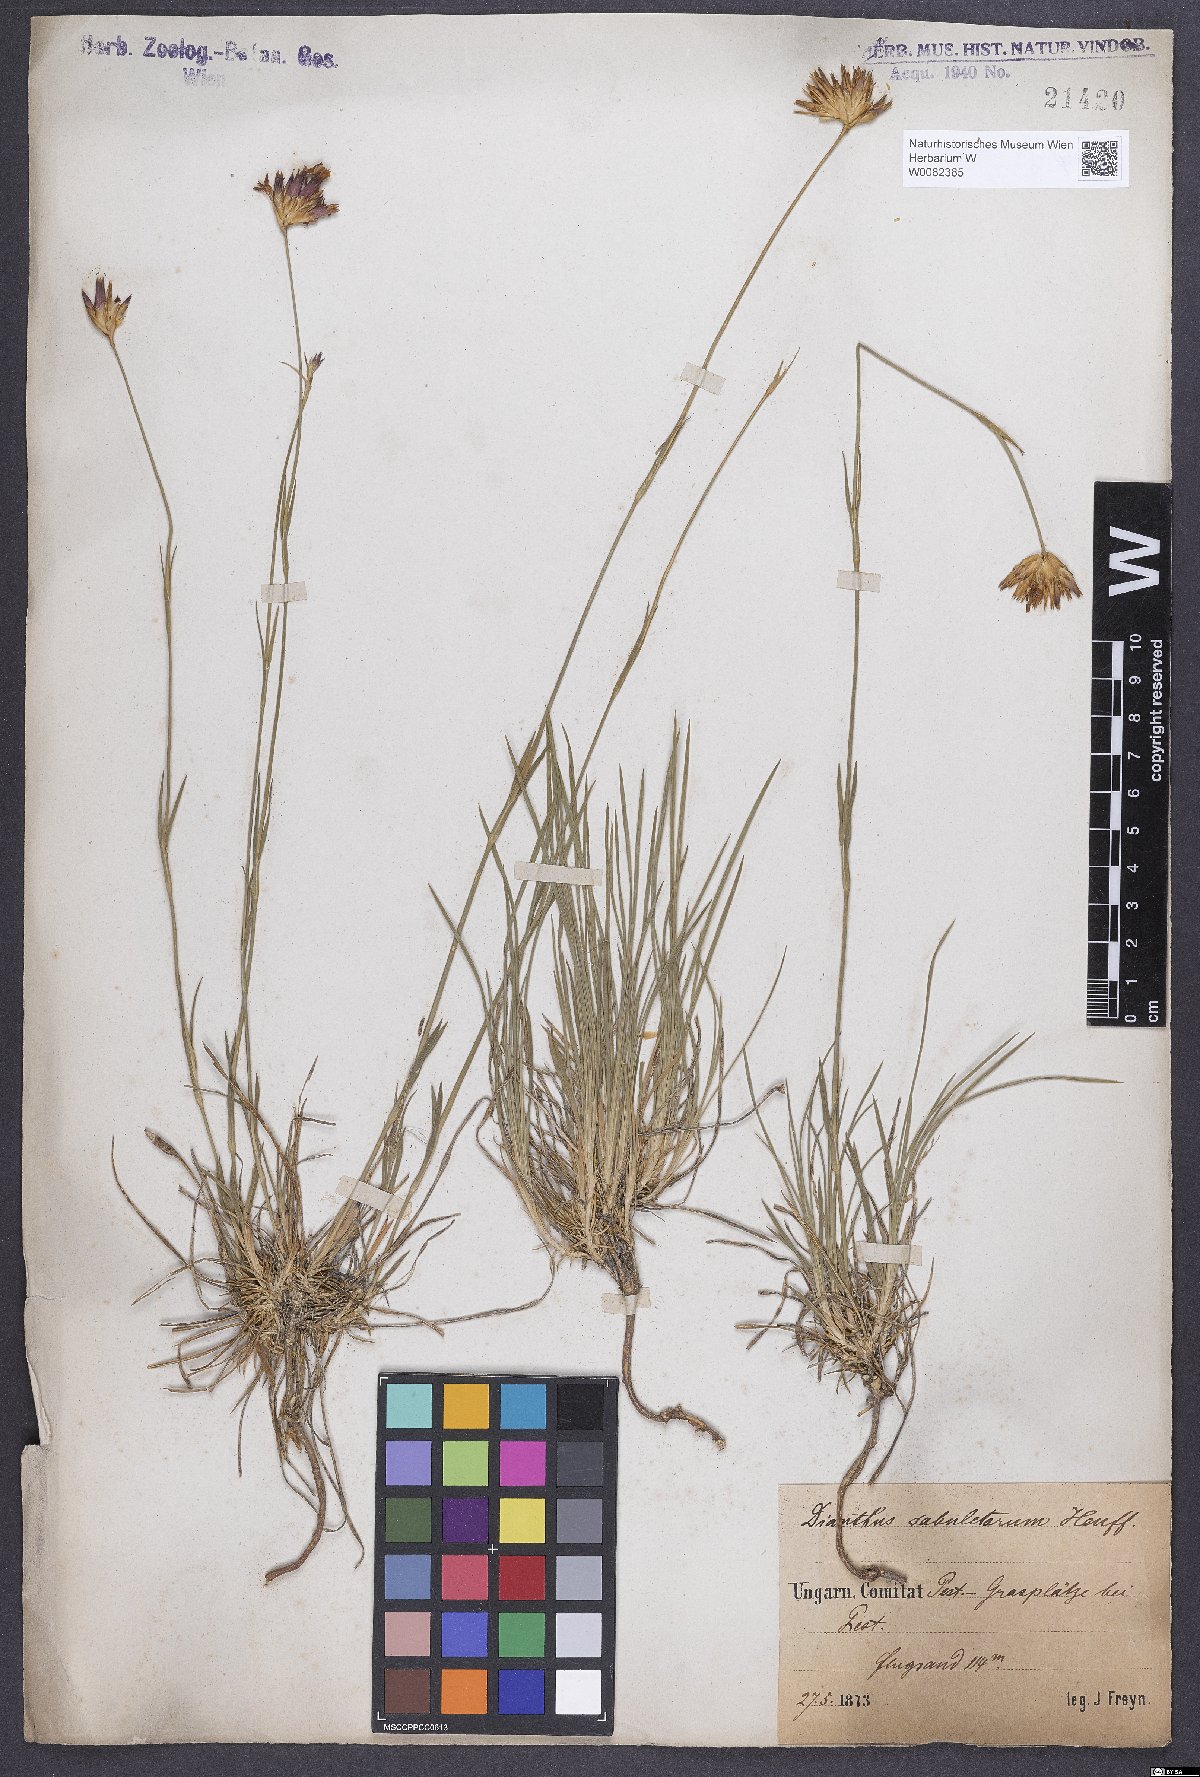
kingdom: Plantae
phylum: Tracheophyta
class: Magnoliopsida
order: Caryophyllales
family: Caryophyllaceae
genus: Dianthus
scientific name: Dianthus carthusianorum
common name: Carthusian pink
